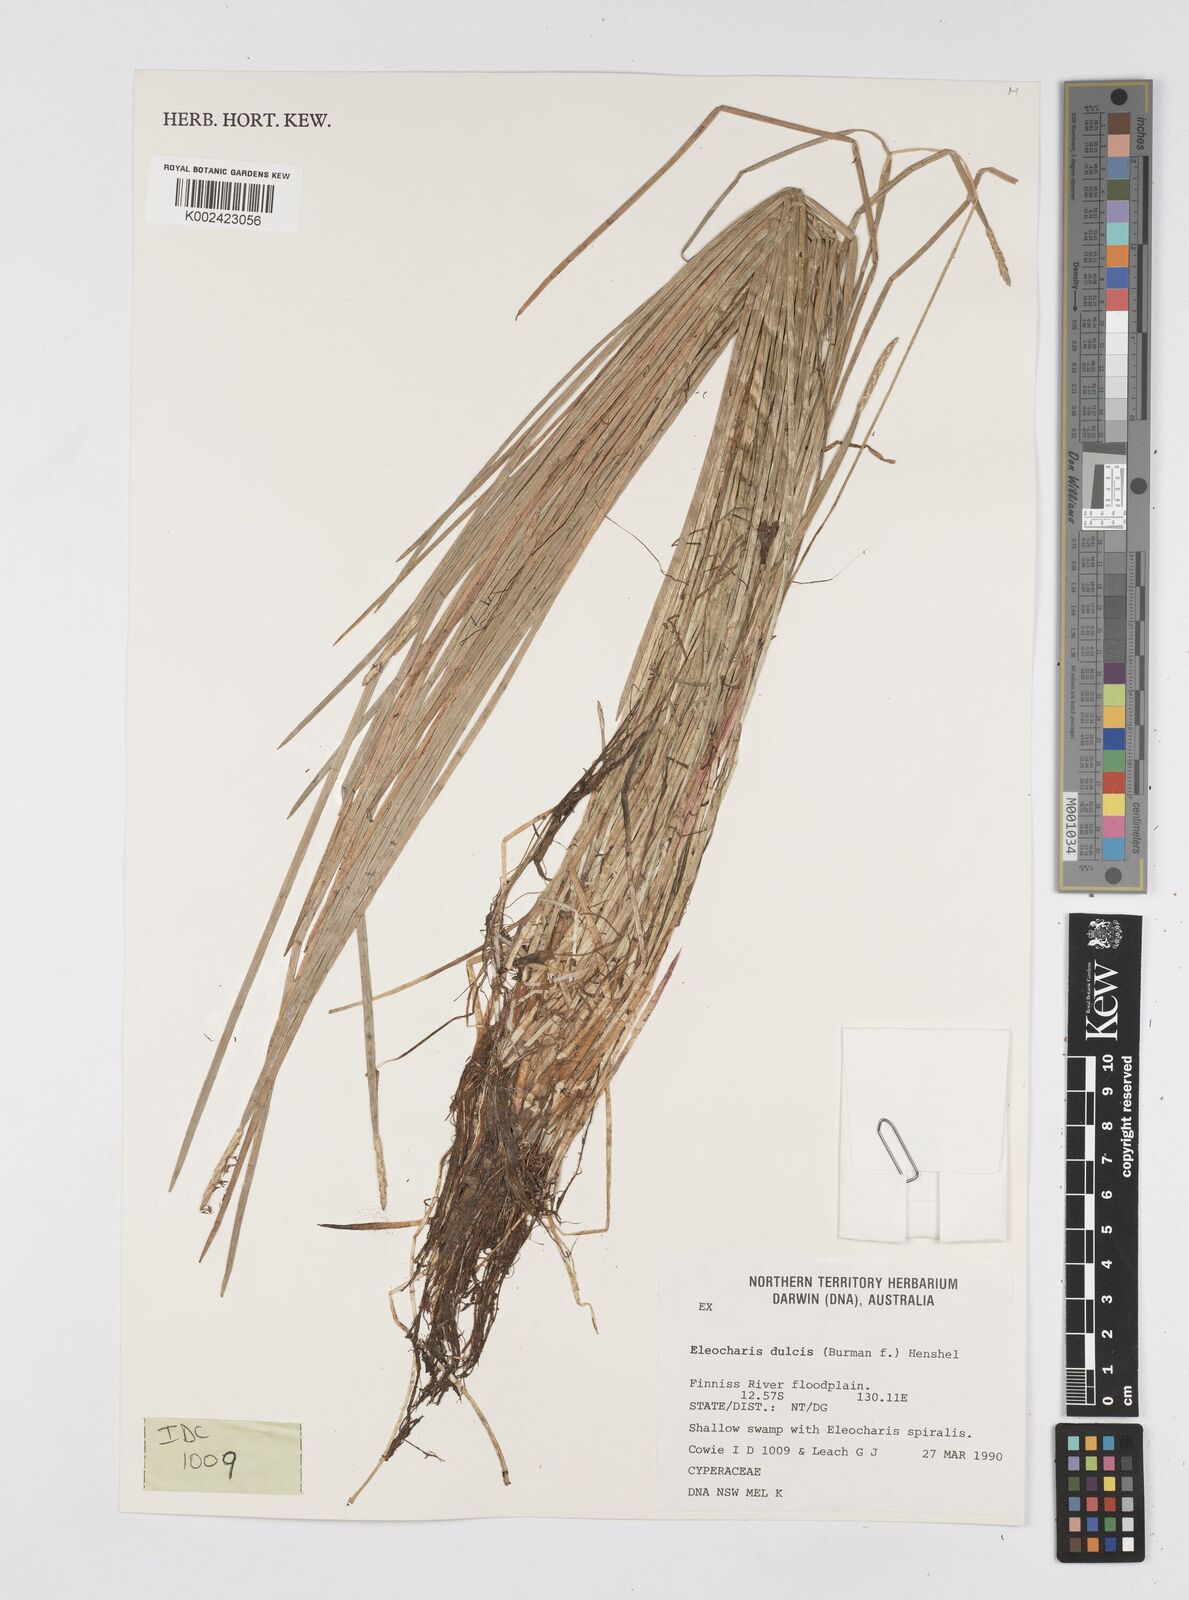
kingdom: Plantae
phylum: Tracheophyta
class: Liliopsida
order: Poales
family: Cyperaceae
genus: Eleocharis
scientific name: Eleocharis dulcis
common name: Chinese water chestnut
